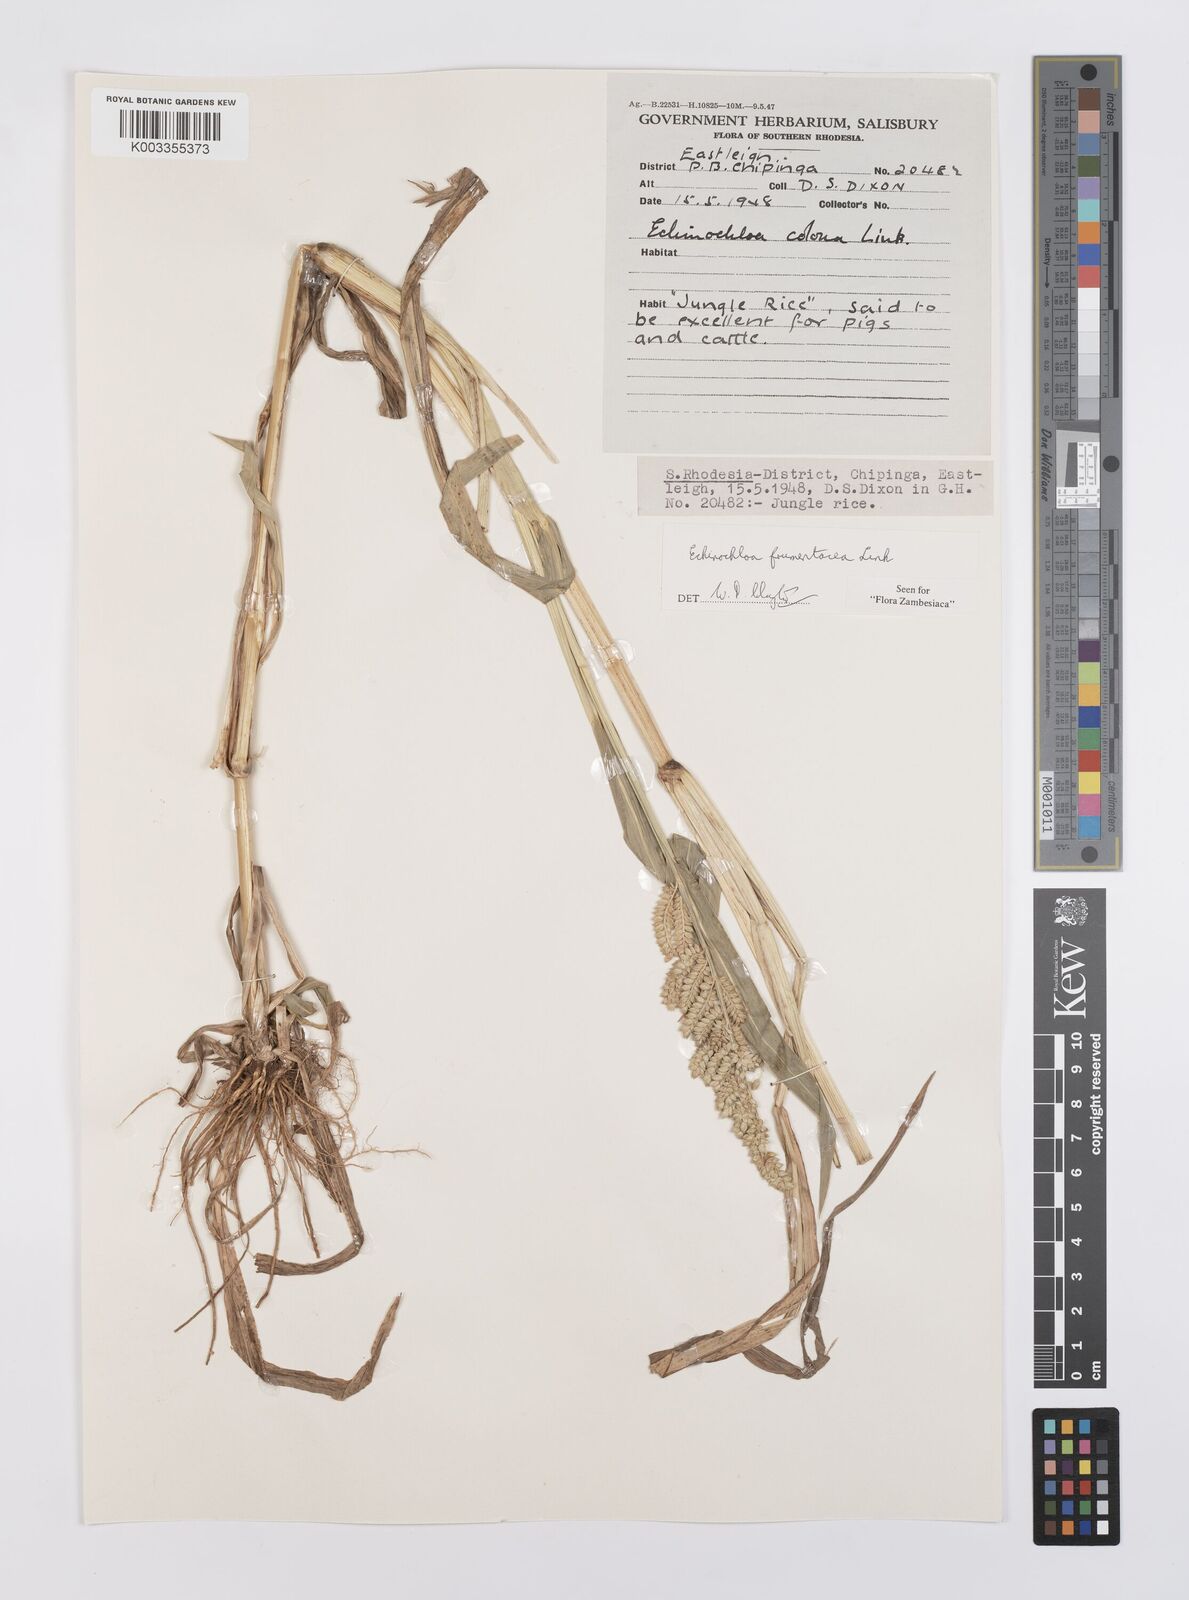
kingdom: Plantae
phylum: Tracheophyta
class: Liliopsida
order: Poales
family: Poaceae
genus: Echinochloa
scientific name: Echinochloa frumentacea
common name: Billion-dollar grass
